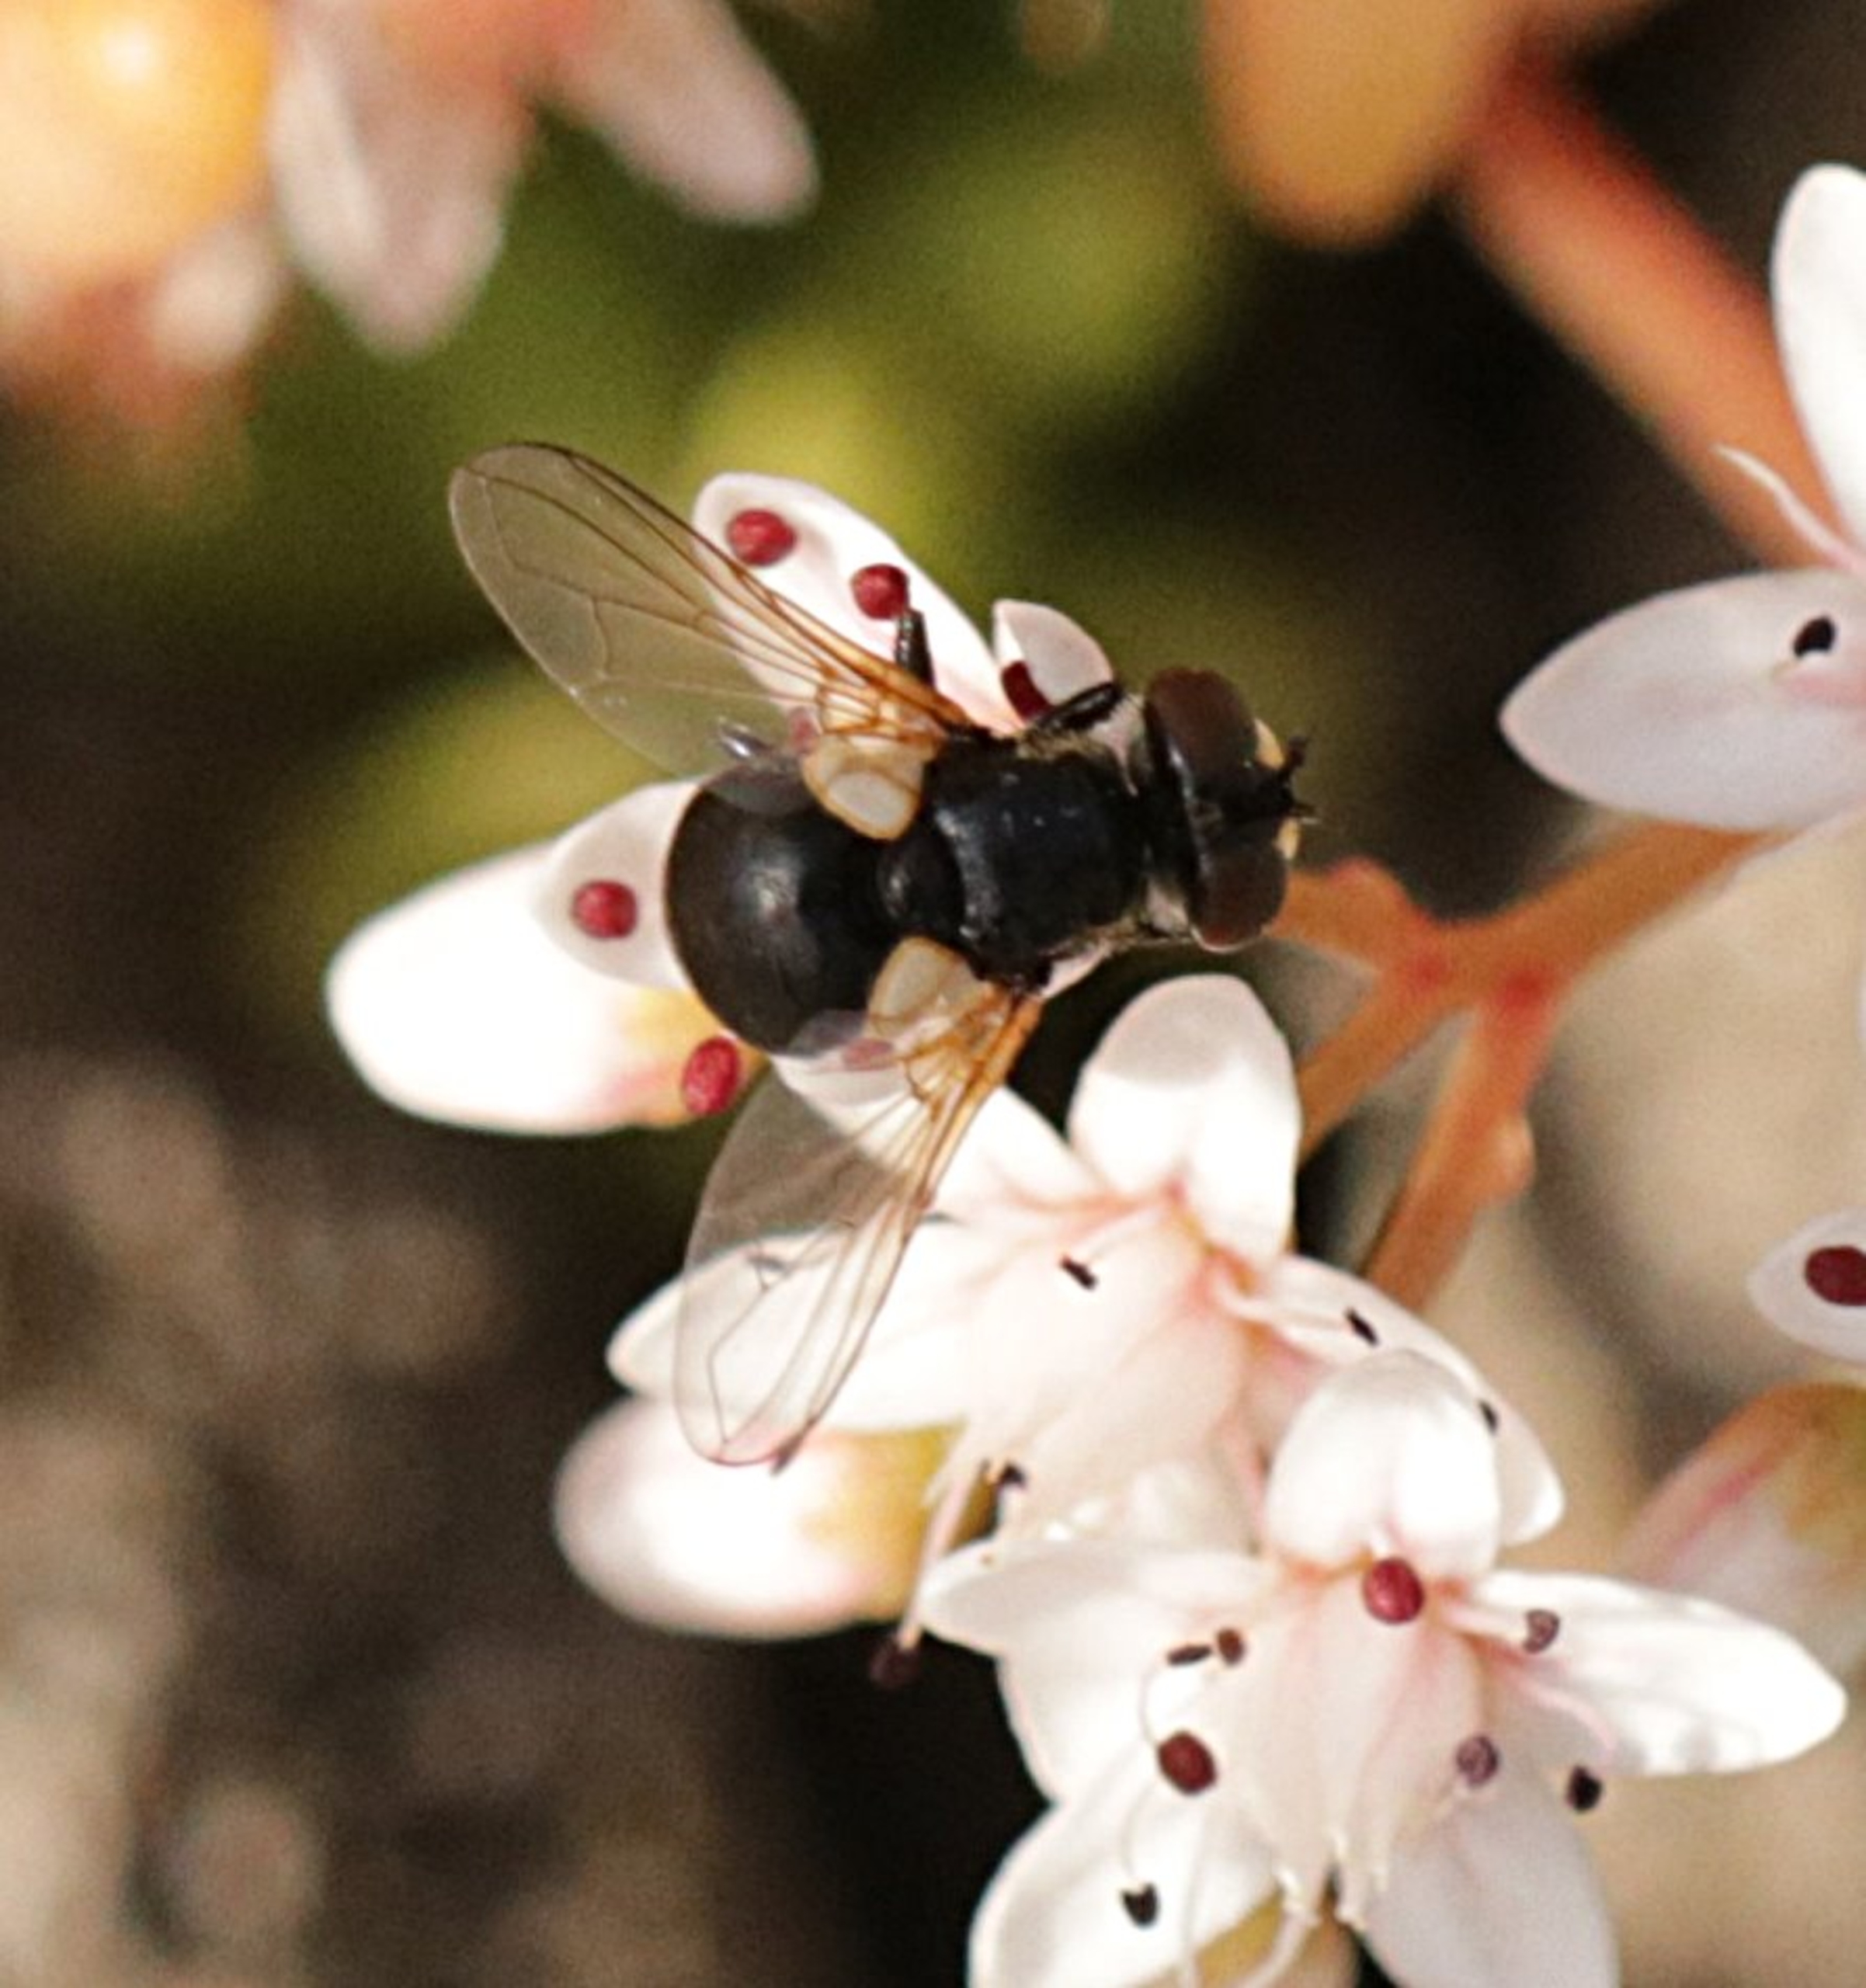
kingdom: Animalia
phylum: Arthropoda
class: Insecta
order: Diptera
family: Tachinidae
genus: Cistogaster
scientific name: Cistogaster globosa
